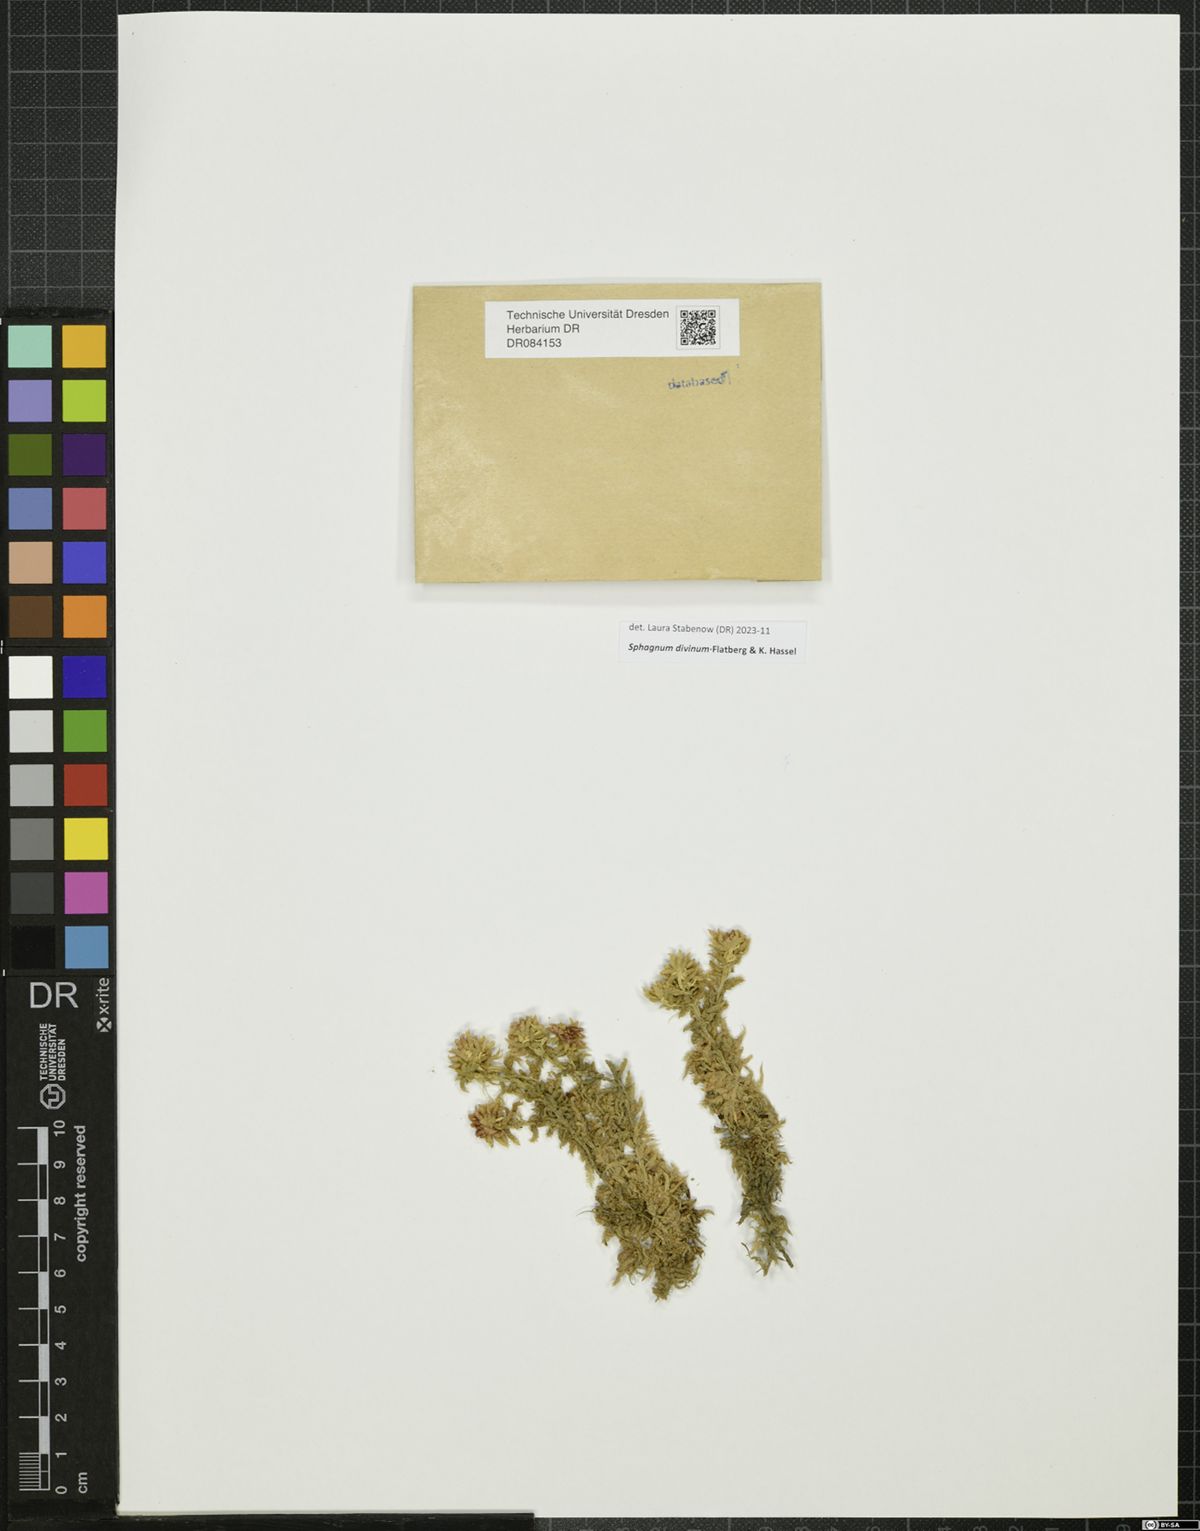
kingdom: Plantae
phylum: Bryophyta
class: Sphagnopsida
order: Sphagnales
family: Sphagnaceae
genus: Sphagnum
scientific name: Sphagnum divinum
